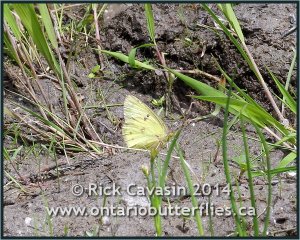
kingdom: Animalia
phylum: Arthropoda
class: Insecta
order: Lepidoptera
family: Pieridae
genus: Colias
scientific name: Colias philodice
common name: Clouded Sulphur
